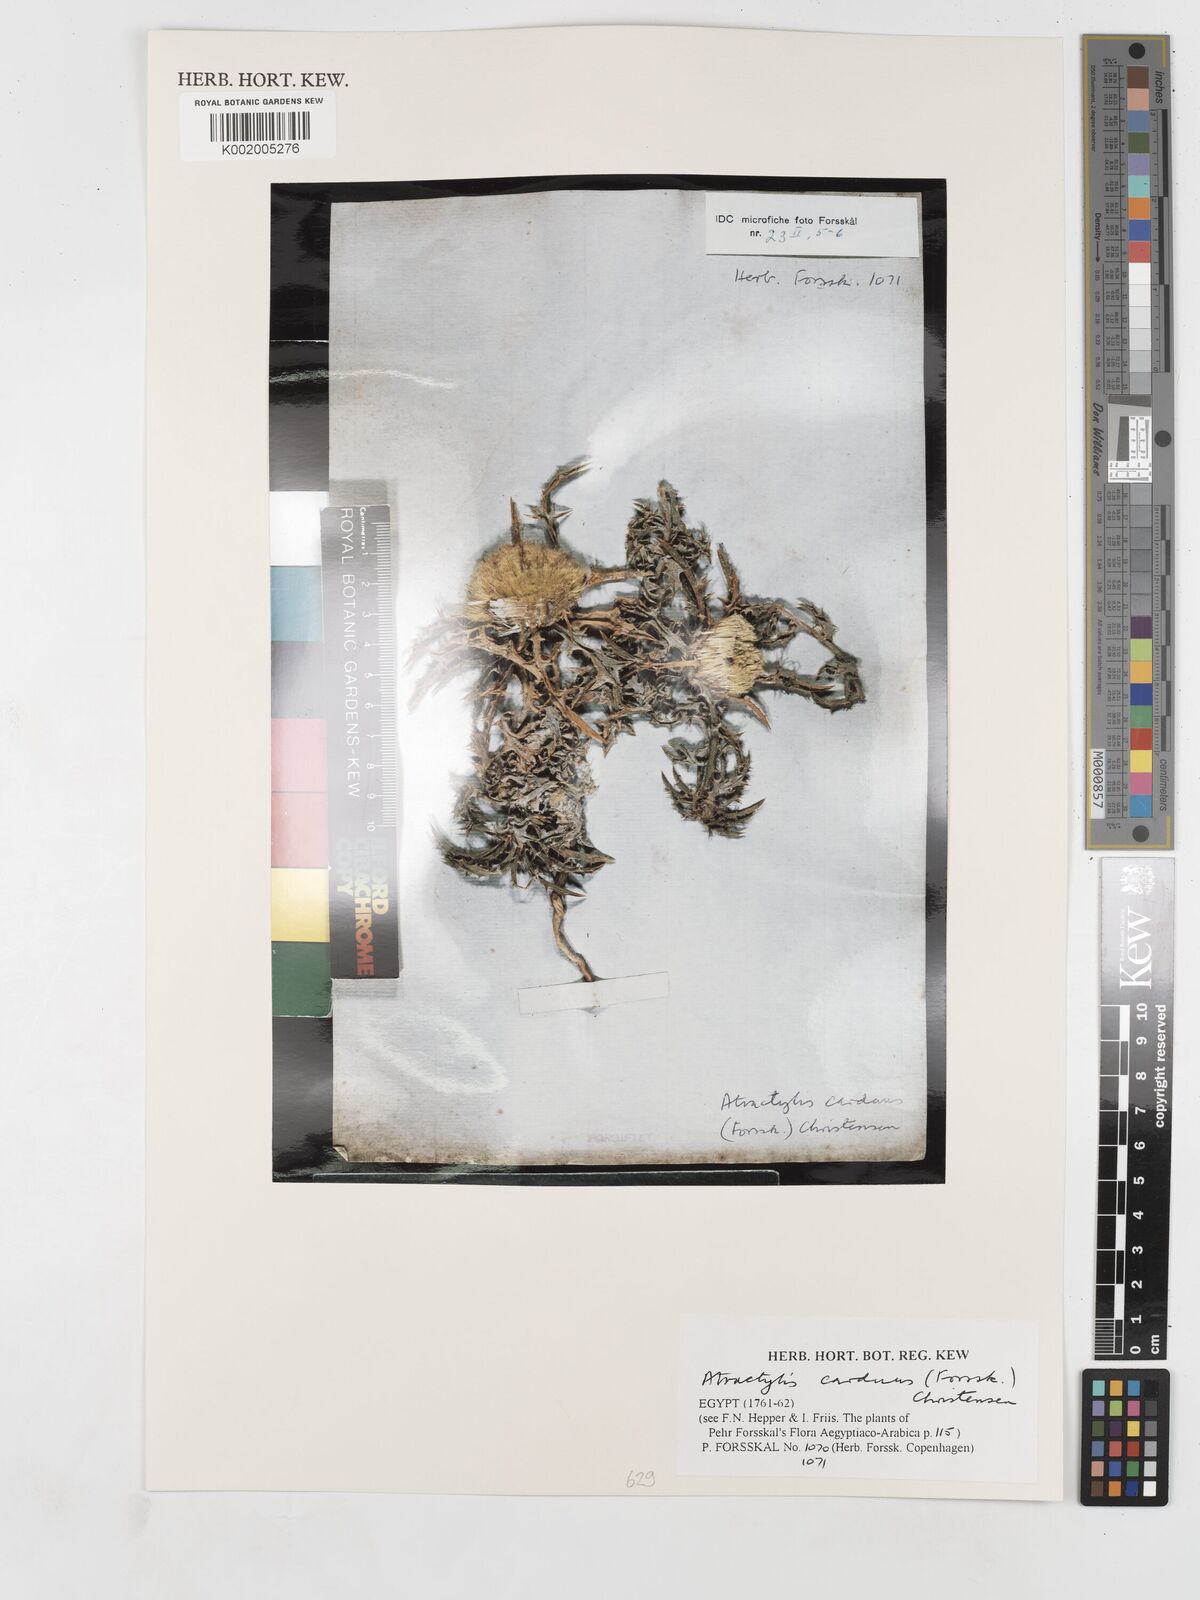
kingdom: Plantae
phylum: Tracheophyta
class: Magnoliopsida
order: Asterales
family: Asteraceae
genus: Atractylis
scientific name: Atractylis carduus
